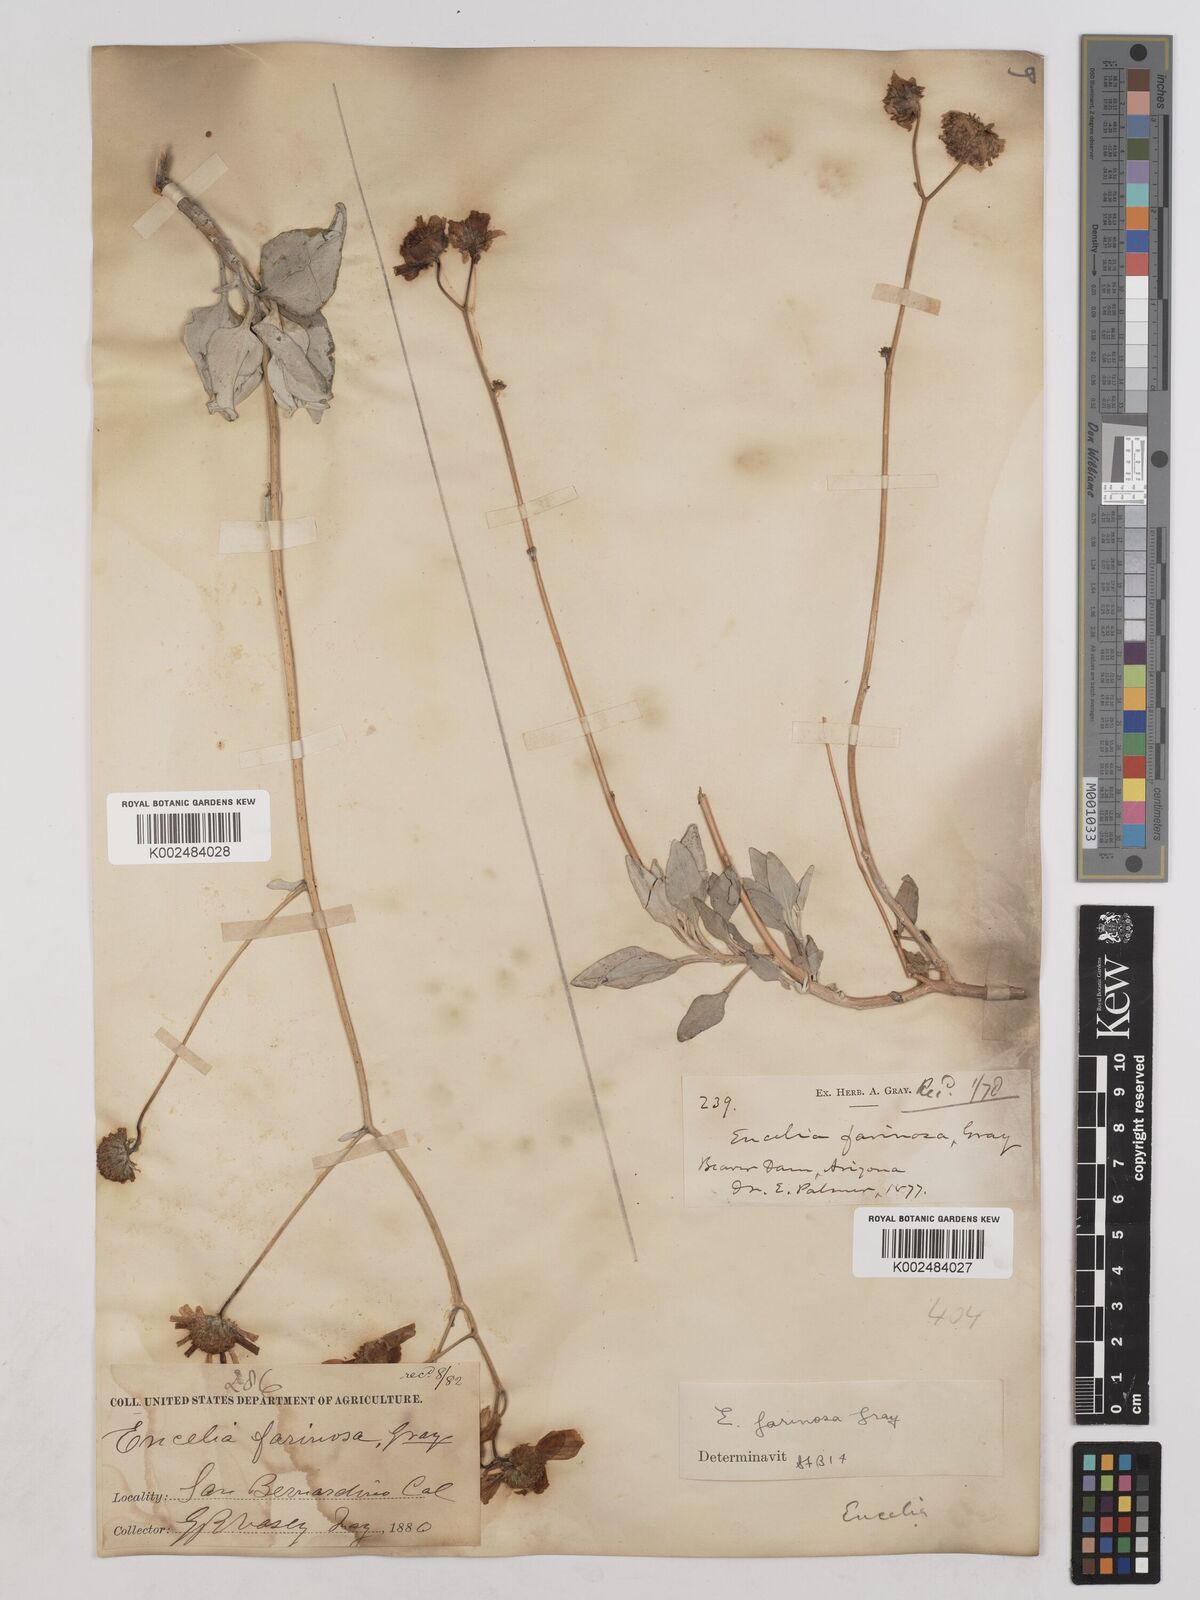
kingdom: Plantae
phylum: Tracheophyta
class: Magnoliopsida
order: Asterales
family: Asteraceae
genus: Encelia
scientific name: Encelia farinosa
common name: Brittlebush
